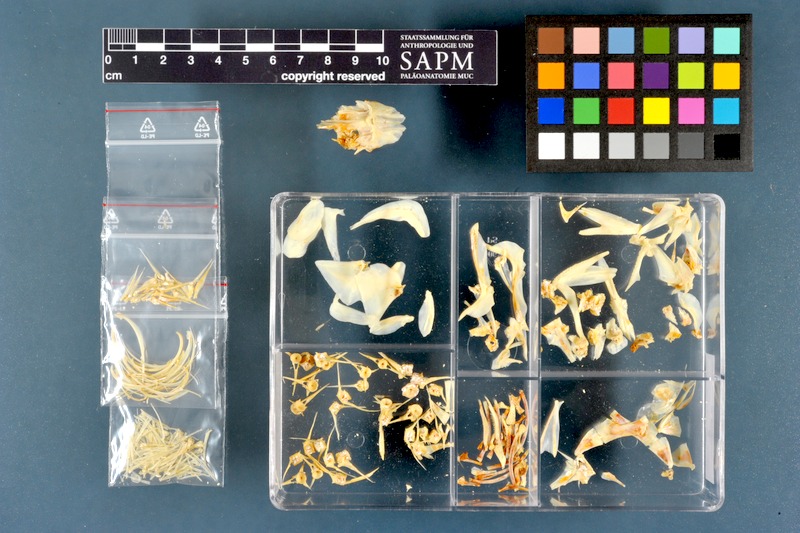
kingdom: Animalia
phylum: Chordata
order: Perciformes
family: Centrarchidae
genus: Micropterus
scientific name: Micropterus salmoides
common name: Largemouth bass
